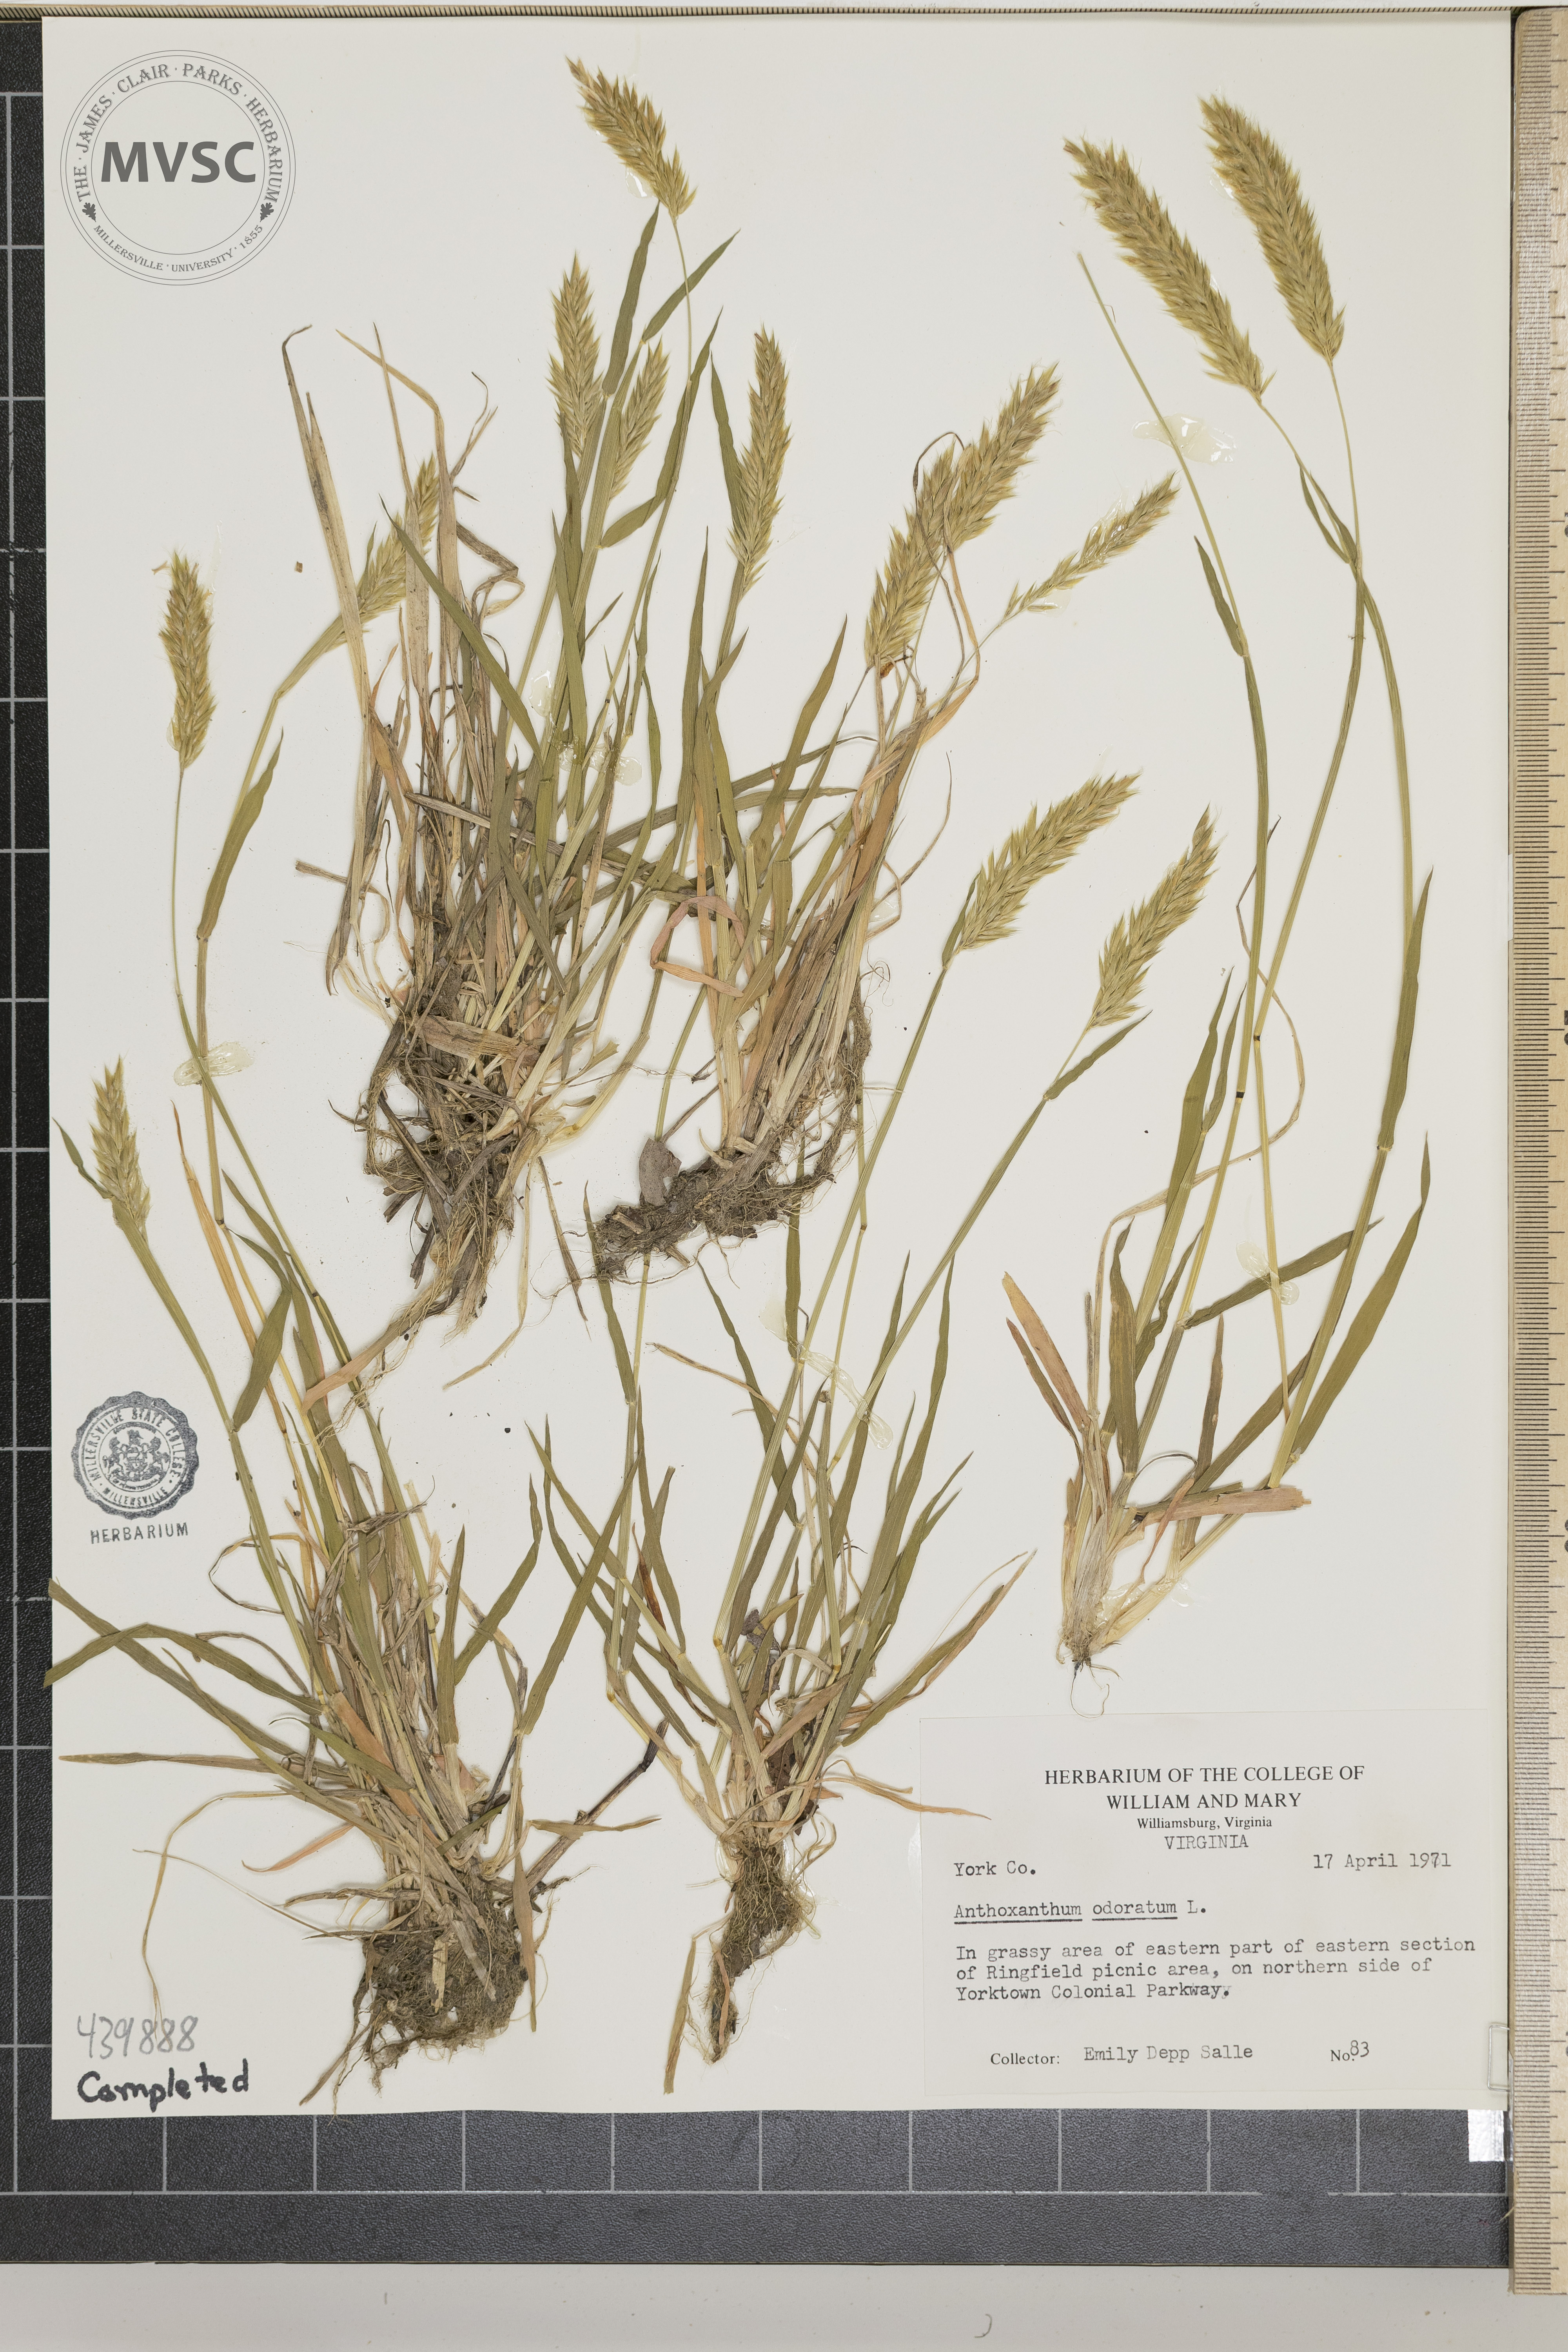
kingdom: Plantae
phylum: Tracheophyta
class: Liliopsida
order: Poales
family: Poaceae
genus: Anthoxanthum
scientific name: Anthoxanthum odoratum
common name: Sweet vernalgrass
